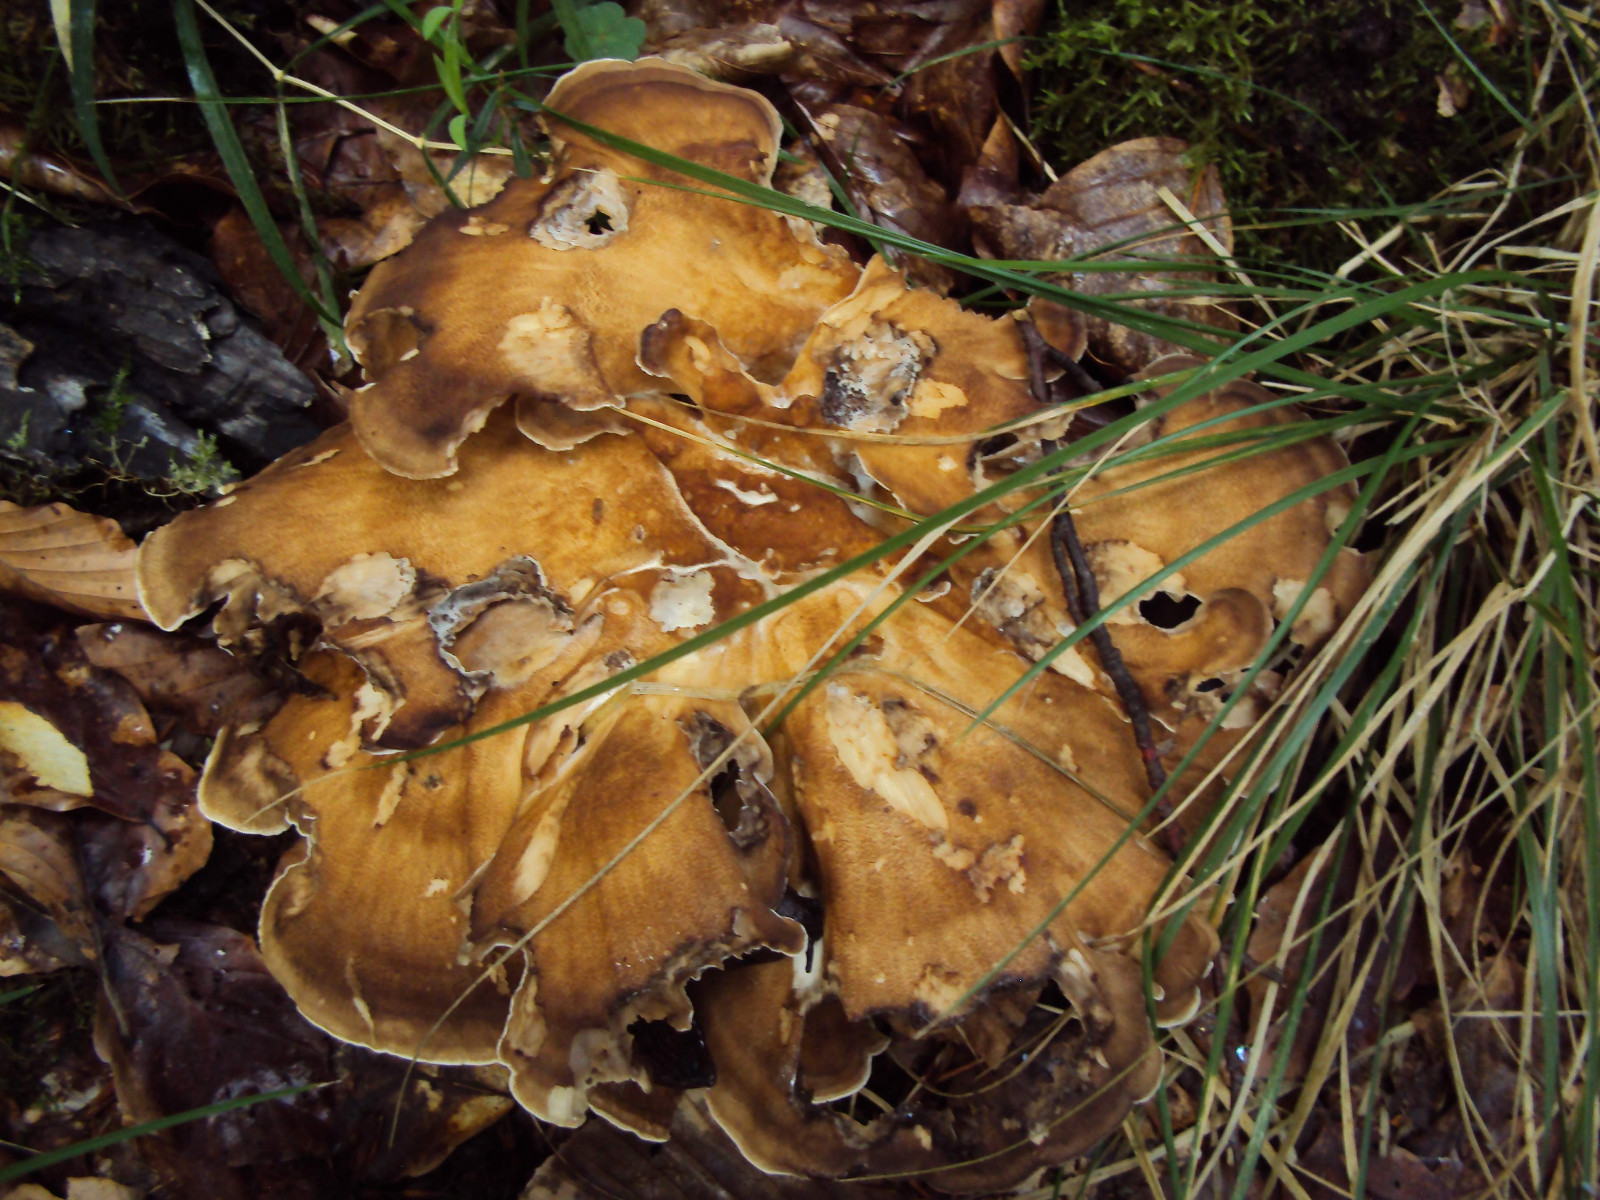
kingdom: Fungi
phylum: Basidiomycota
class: Agaricomycetes
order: Polyporales
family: Meripilaceae
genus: Meripilus
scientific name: Meripilus giganteus
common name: kæmpeporesvamp
